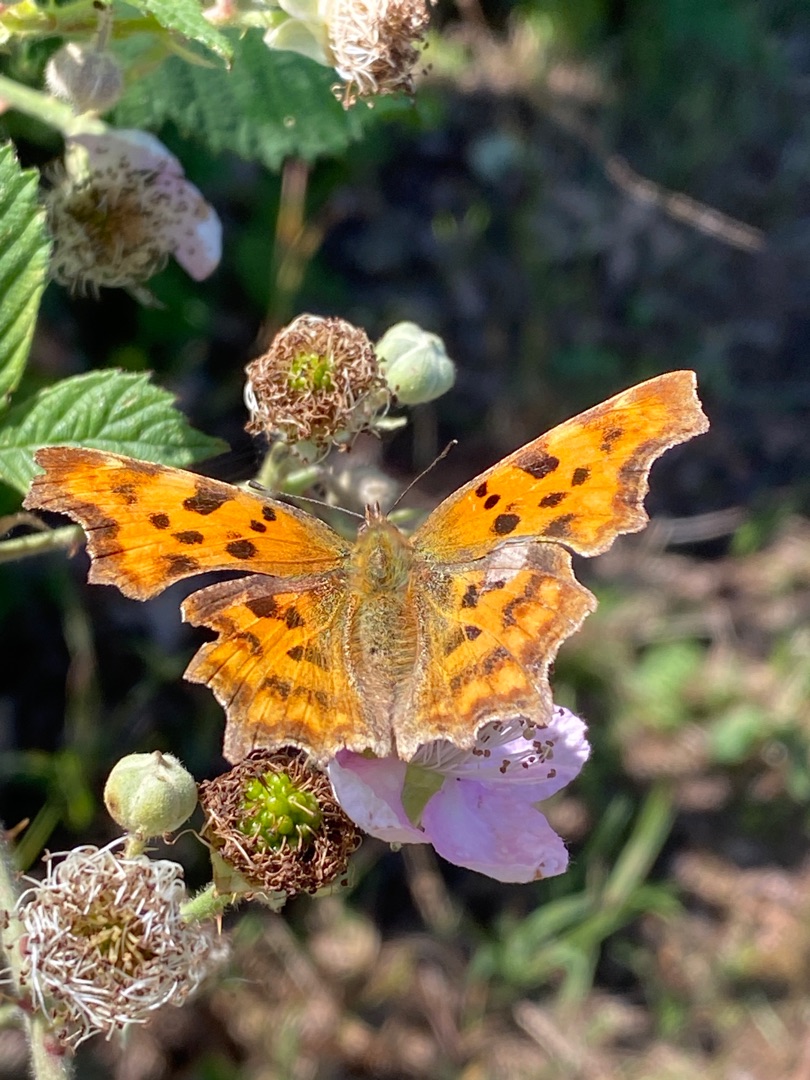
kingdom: Animalia
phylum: Arthropoda
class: Insecta
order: Lepidoptera
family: Nymphalidae
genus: Polygonia
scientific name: Polygonia c-album
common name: Det hvide C
